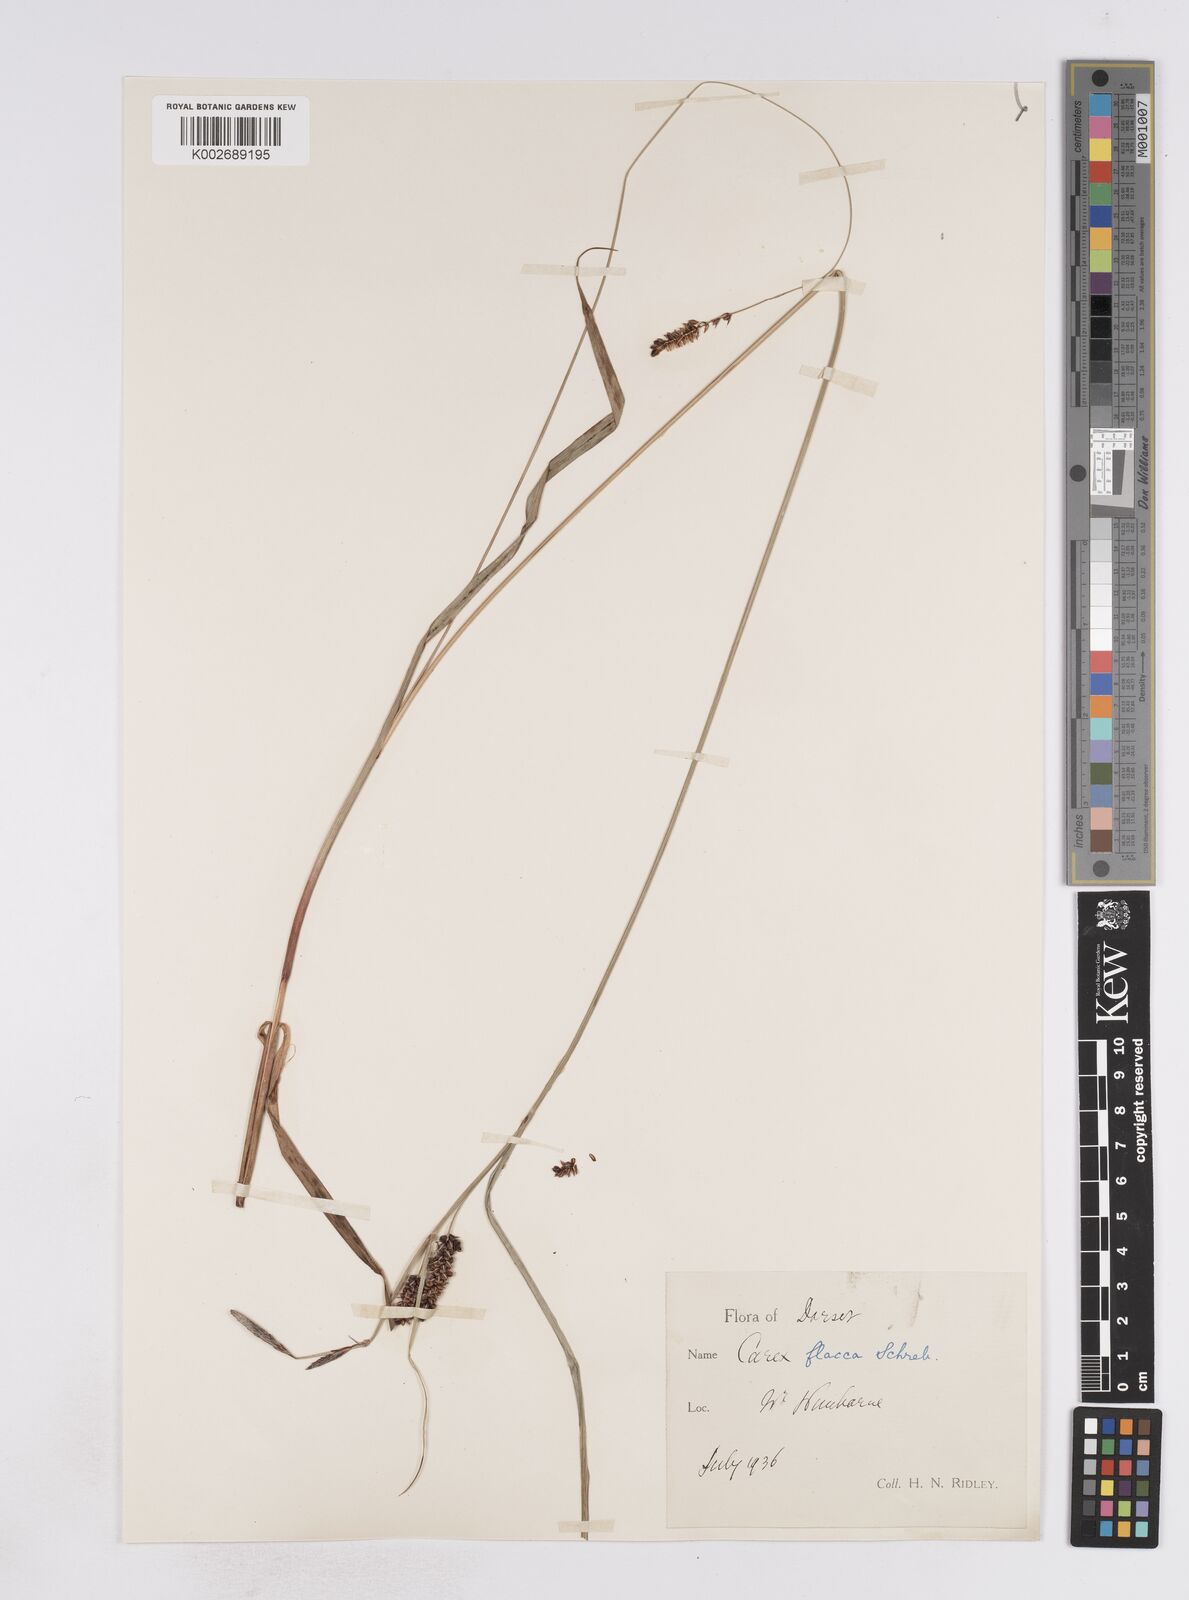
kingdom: Plantae
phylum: Tracheophyta
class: Liliopsida
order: Poales
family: Cyperaceae
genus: Carex
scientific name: Carex flacca
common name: Glaucous sedge
